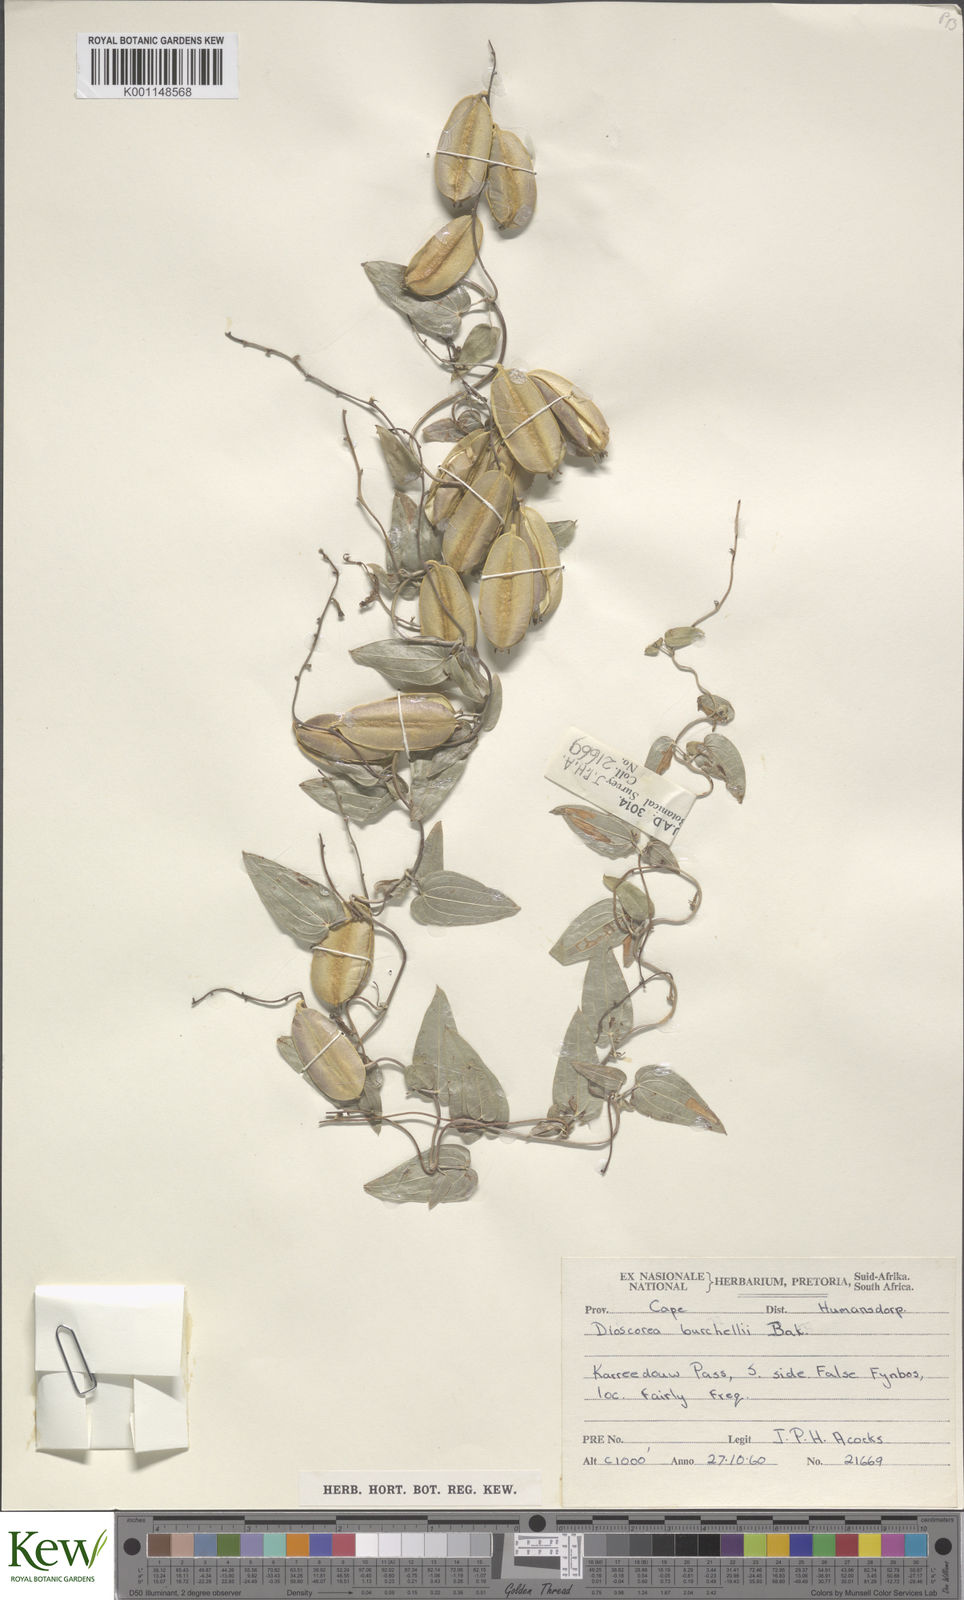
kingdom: Plantae
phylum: Tracheophyta
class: Liliopsida
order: Dioscoreales
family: Dioscoreaceae
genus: Dioscorea
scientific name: Dioscorea burchellii
